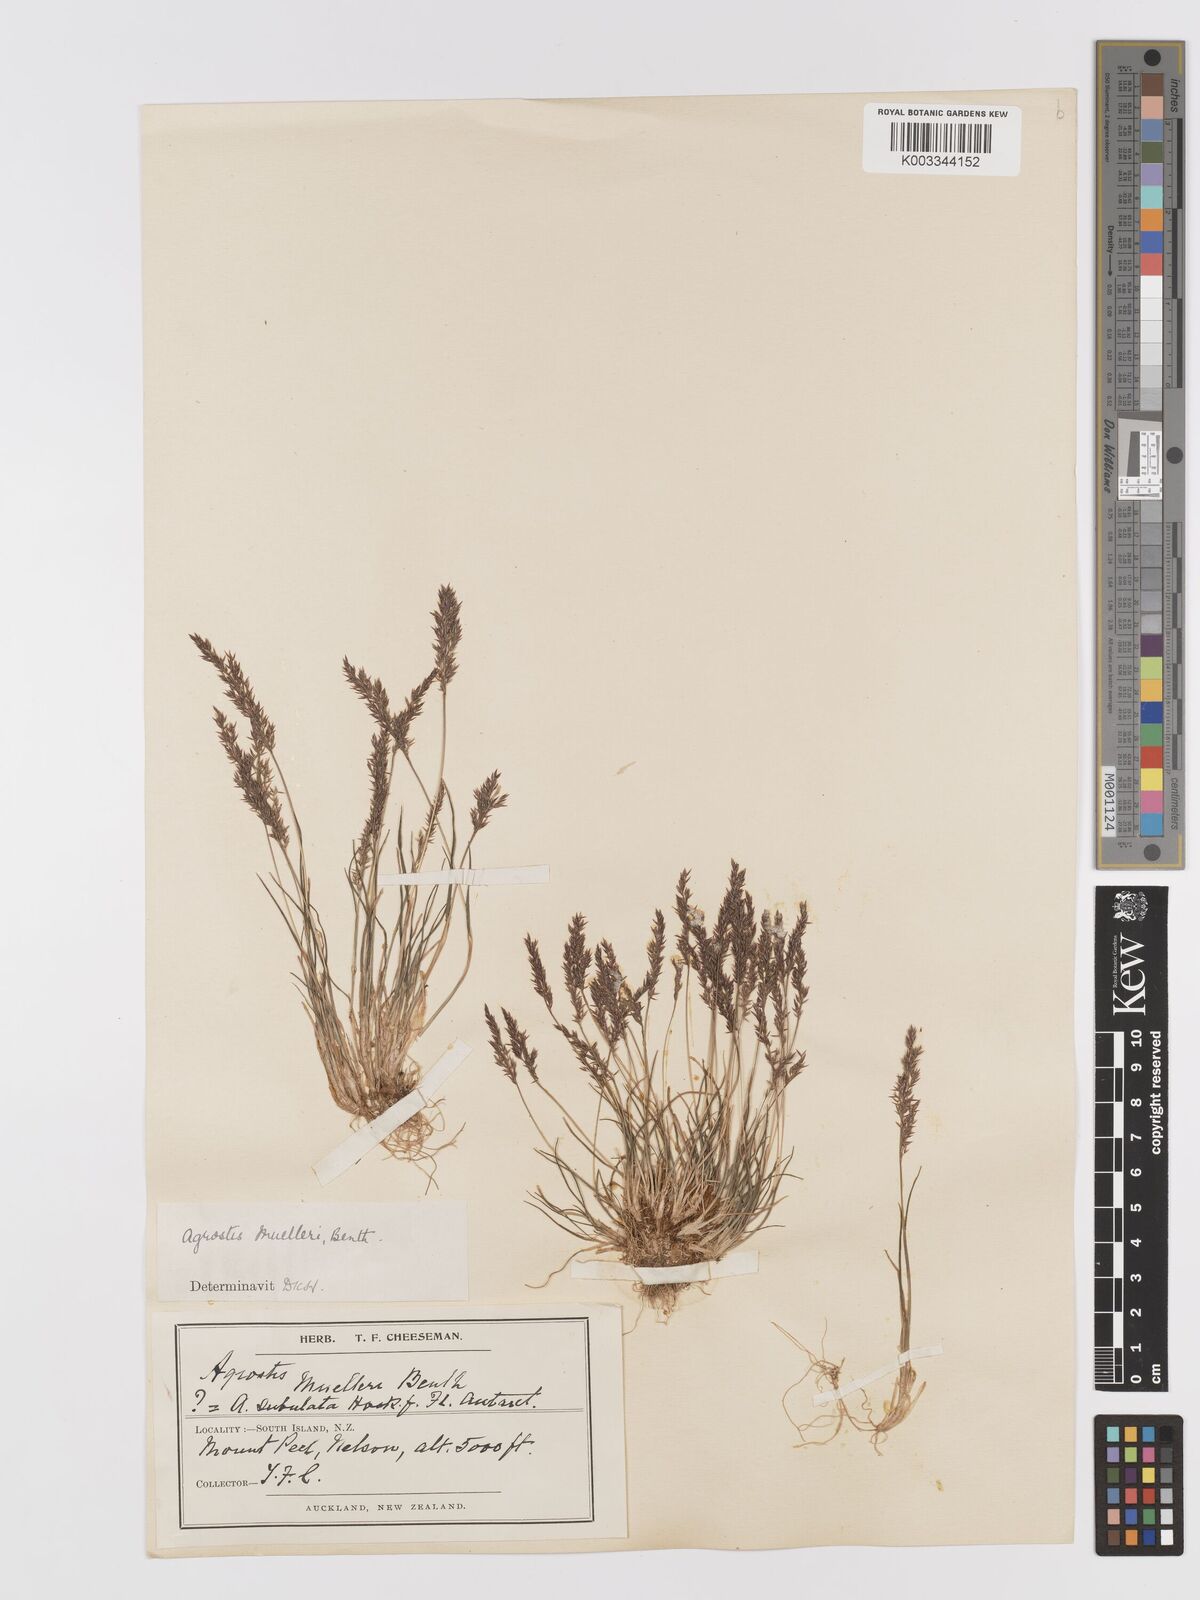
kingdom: Plantae
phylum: Tracheophyta
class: Liliopsida
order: Poales
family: Poaceae
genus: Agrostis
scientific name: Agrostis muelleriana
